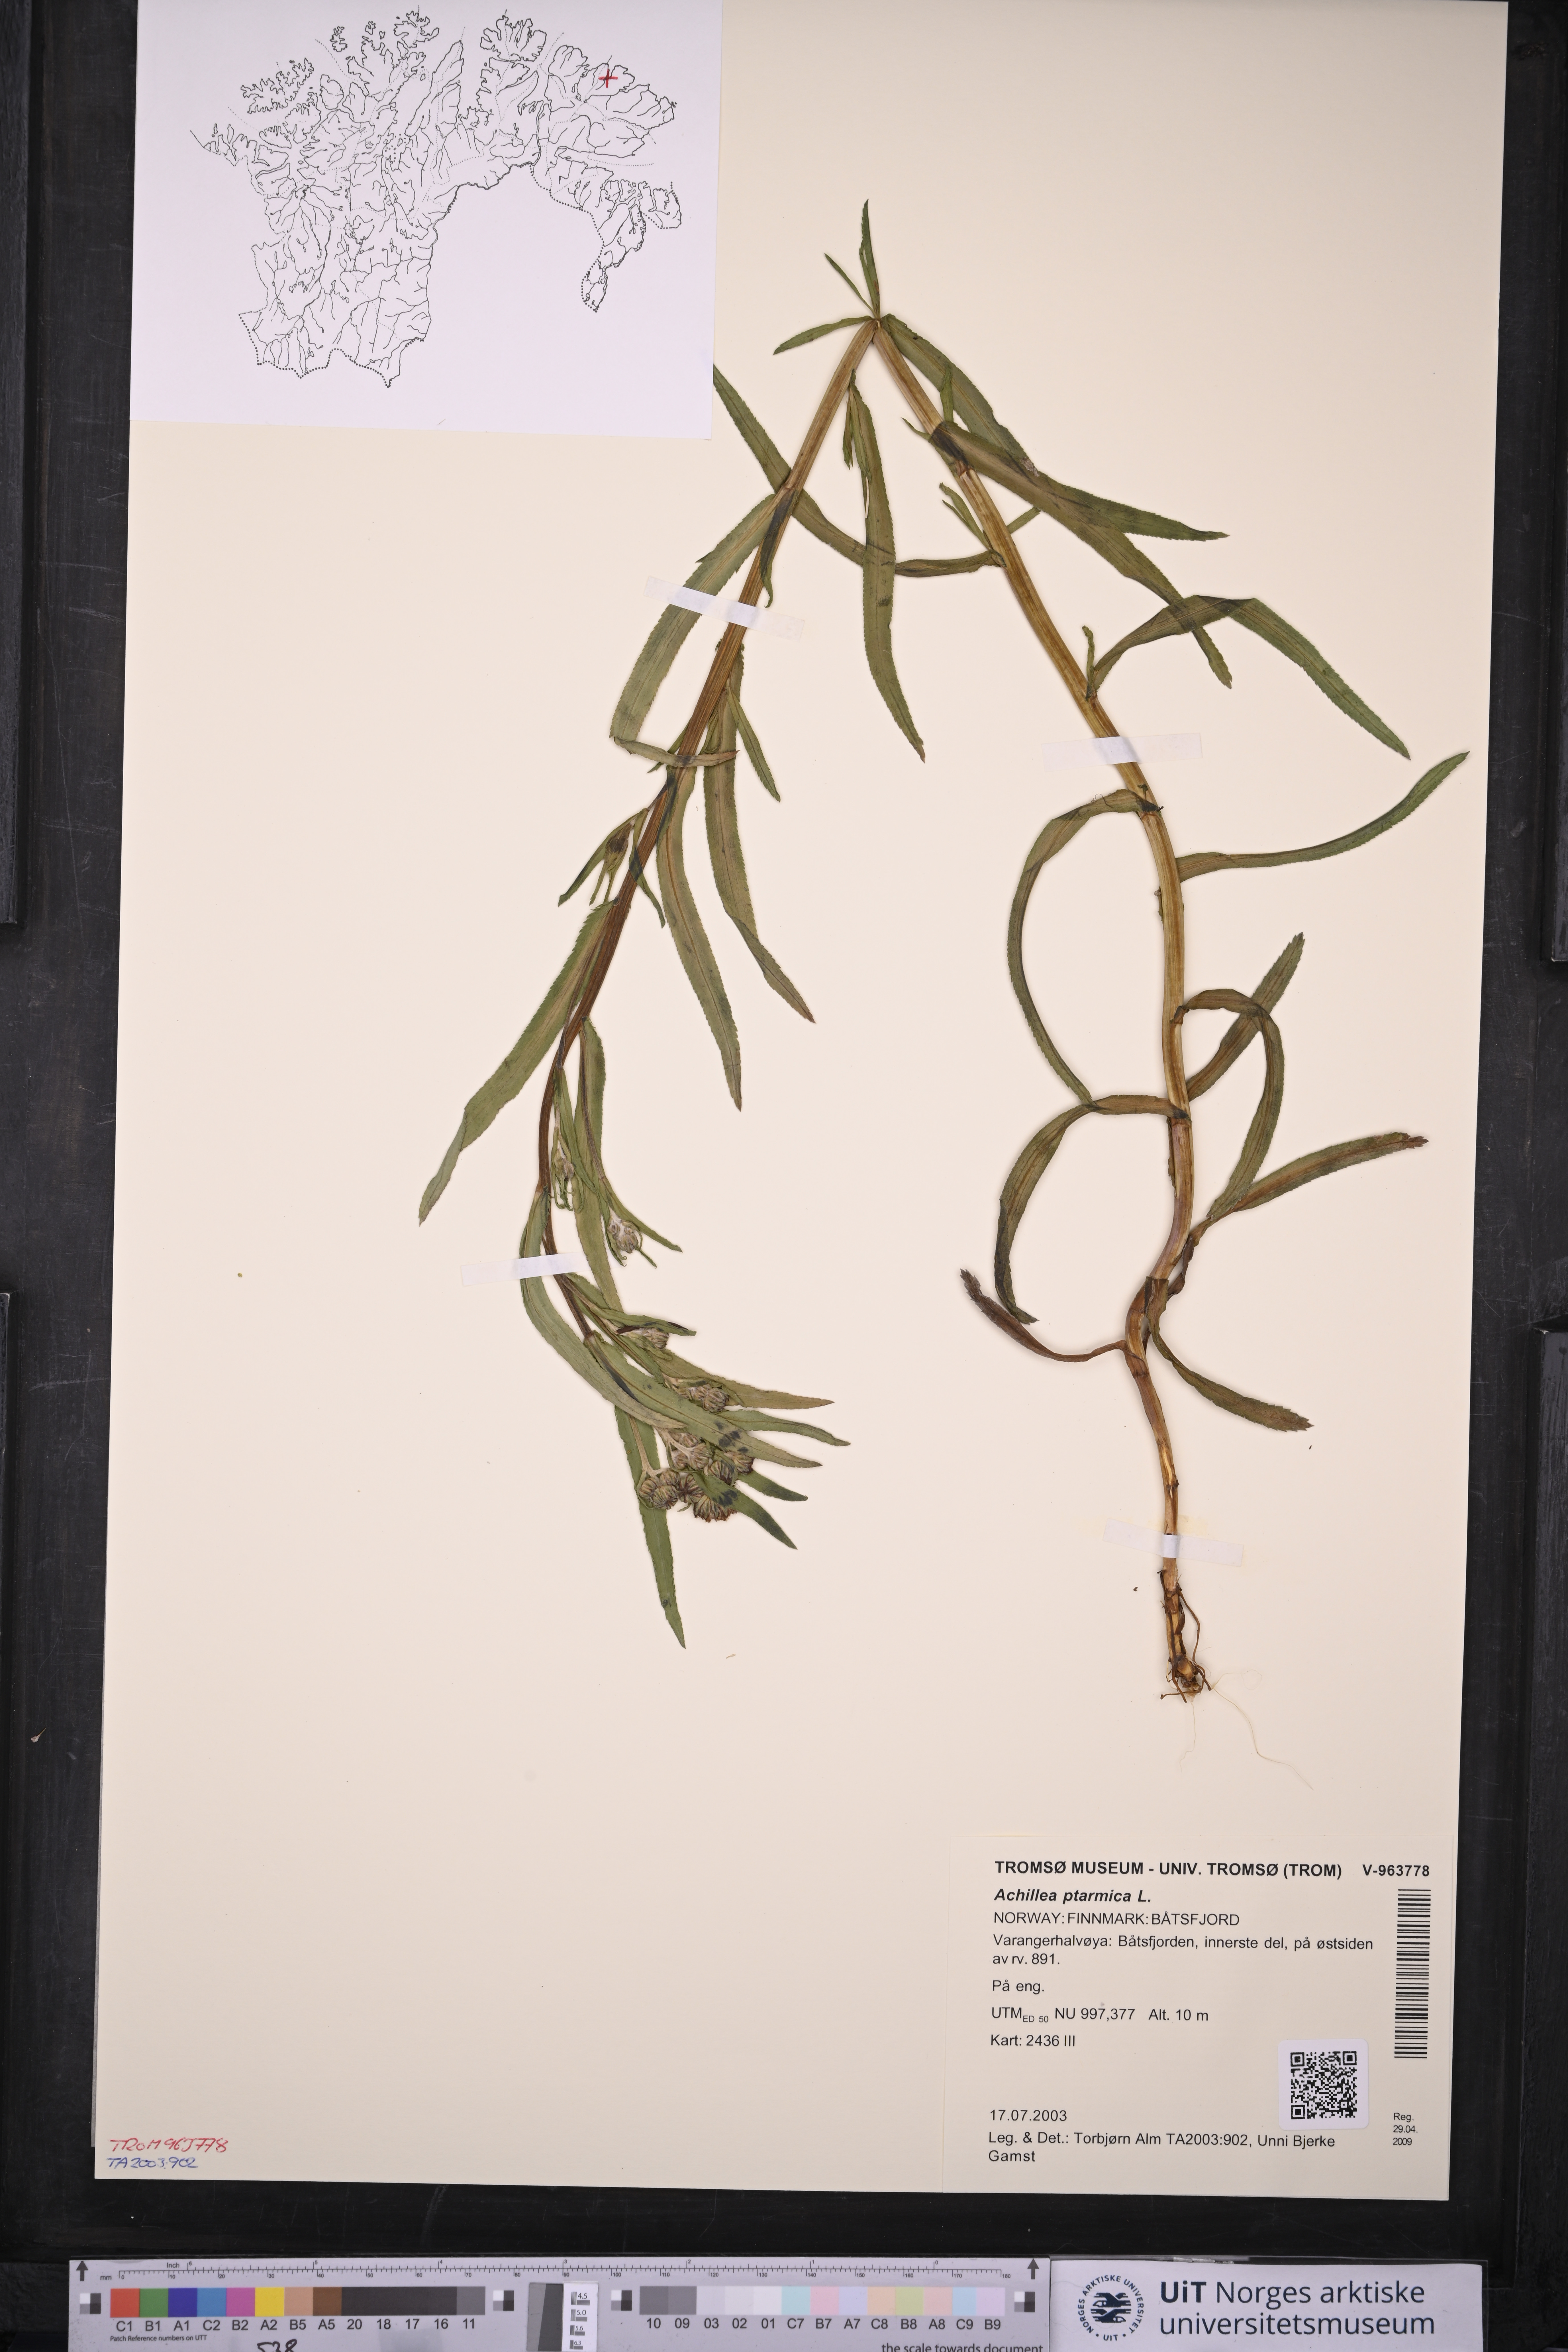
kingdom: Plantae
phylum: Tracheophyta
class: Magnoliopsida
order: Asterales
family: Asteraceae
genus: Achillea
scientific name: Achillea ptarmica
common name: Sneezeweed
